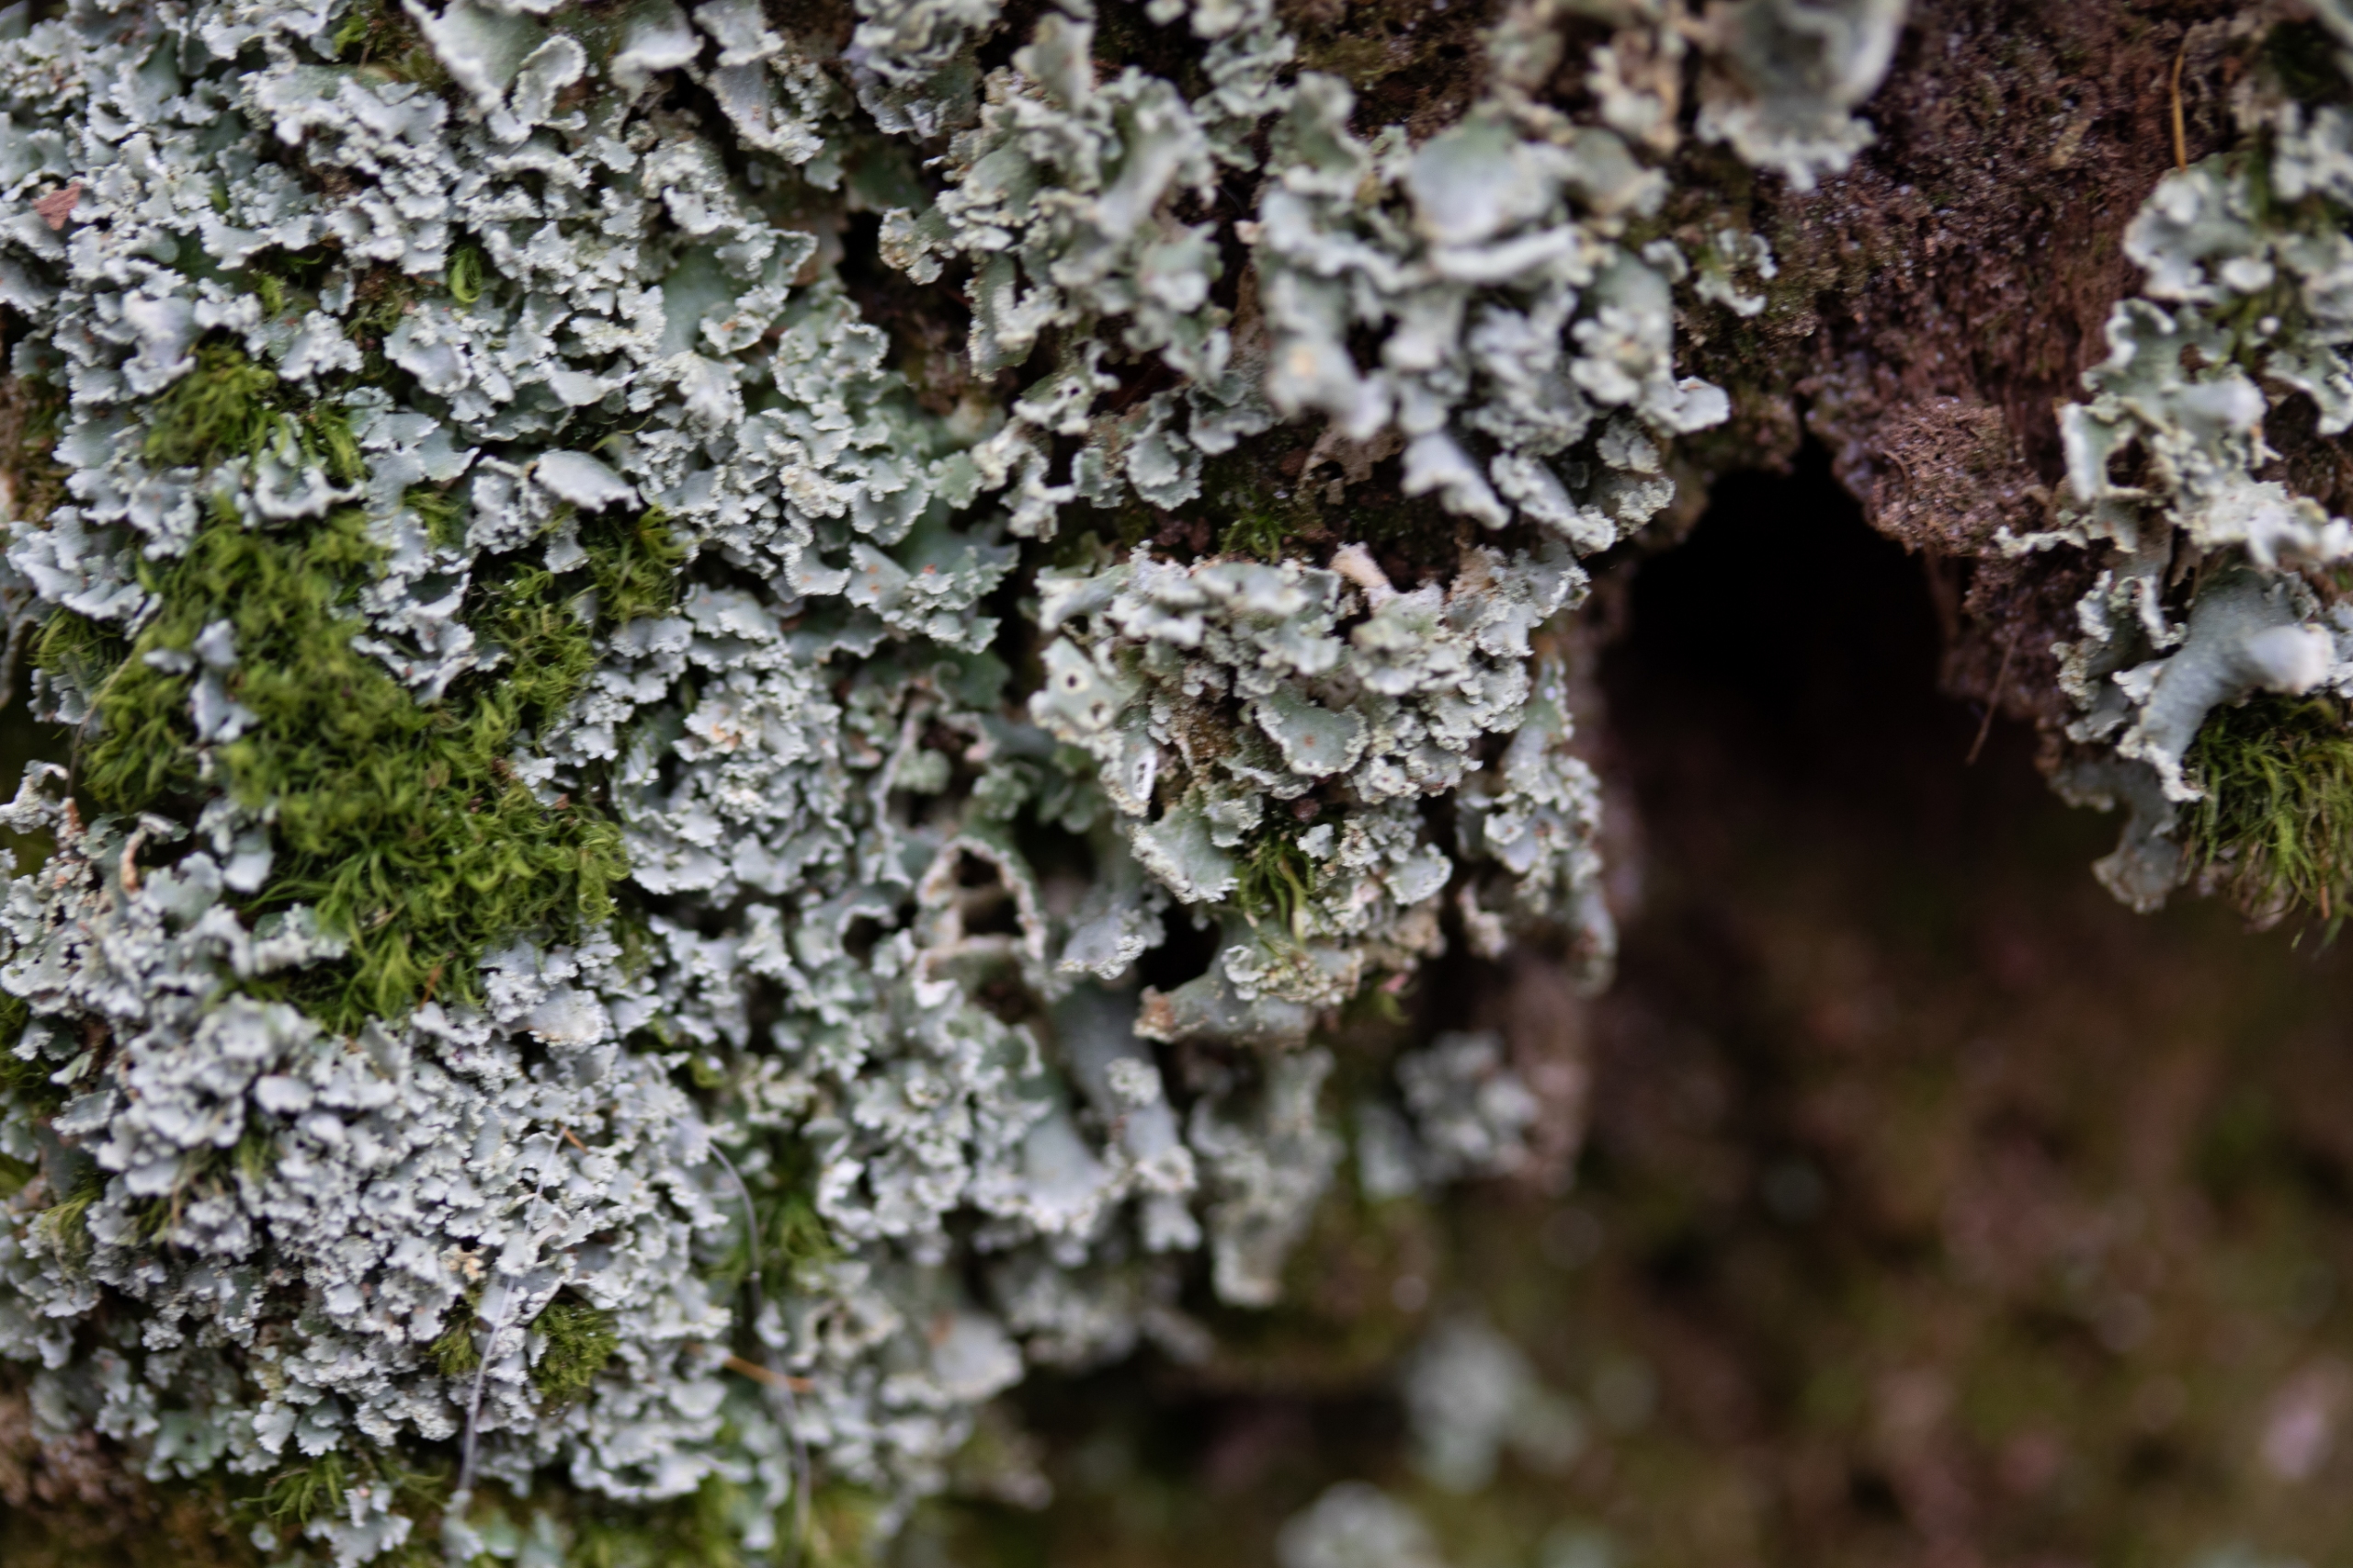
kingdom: Fungi
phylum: Ascomycota
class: Lecanoromycetes
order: Lecanorales
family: Cladoniaceae
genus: Cladonia
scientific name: Cladonia
